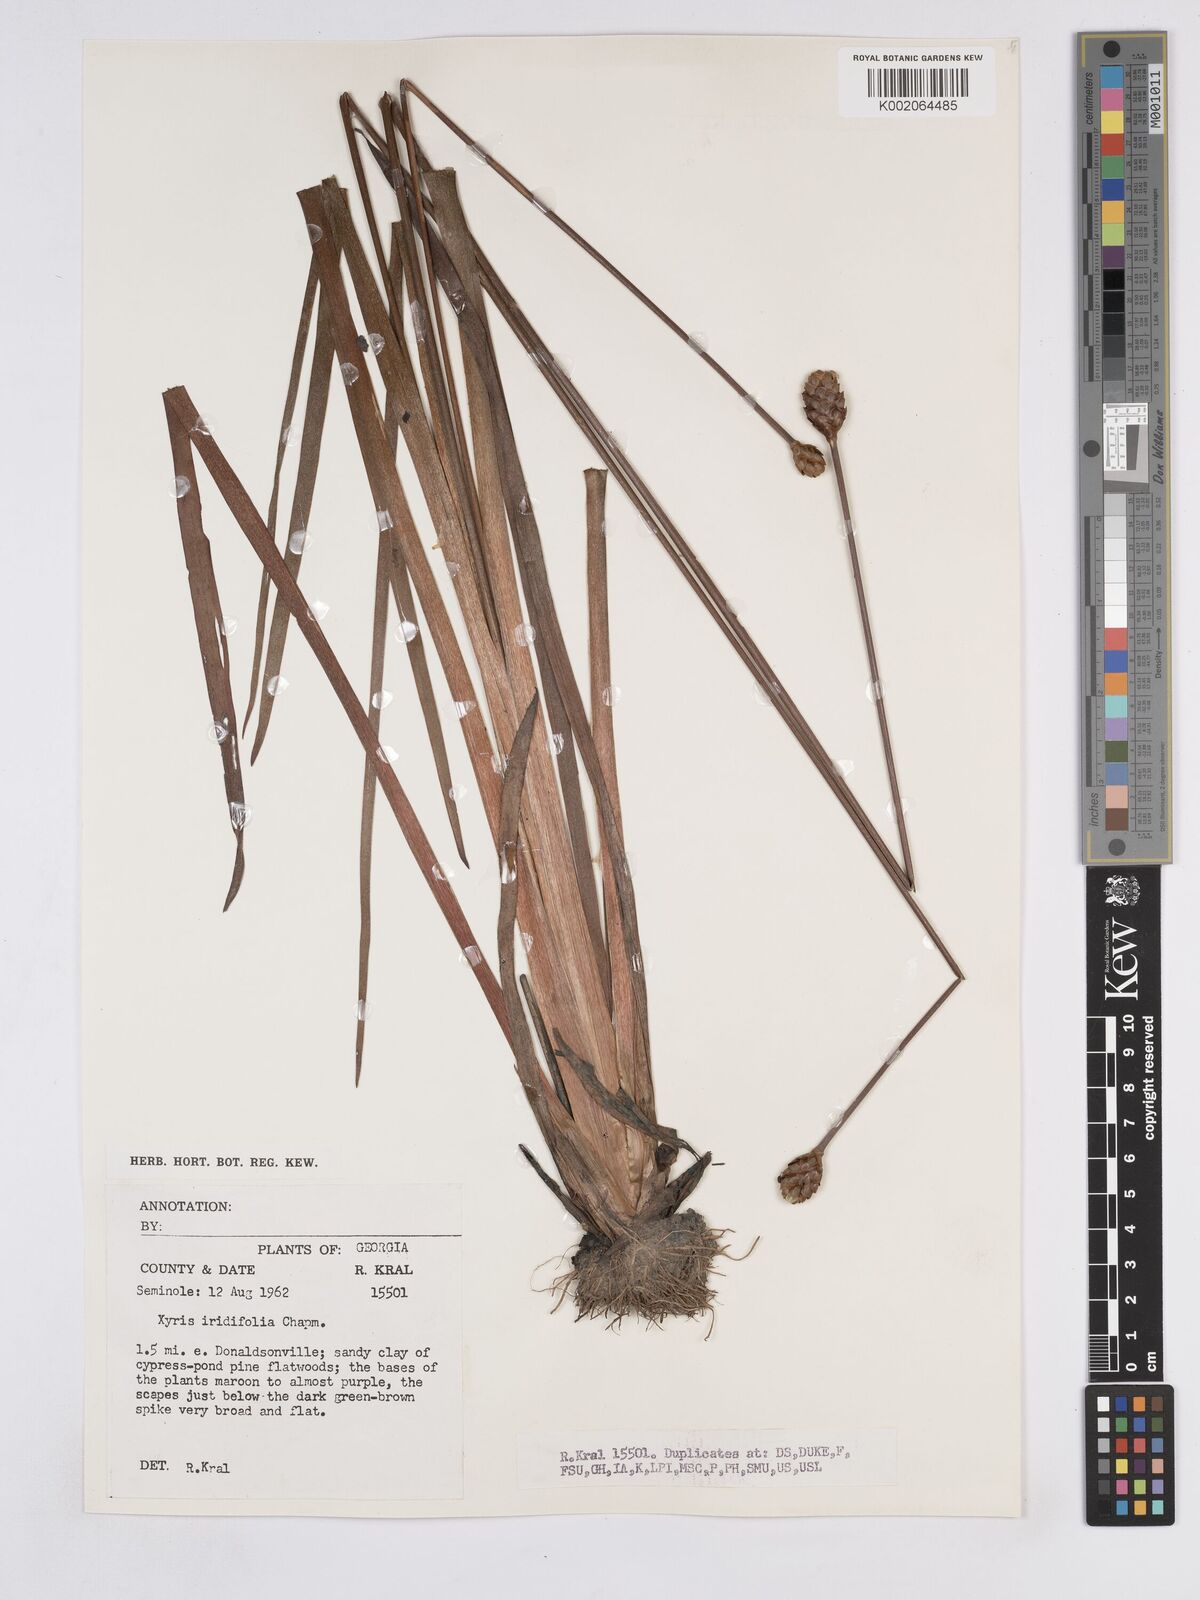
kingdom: Plantae
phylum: Tracheophyta
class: Liliopsida
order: Poales
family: Xyridaceae
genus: Xyris
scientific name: Xyris laxifolia
